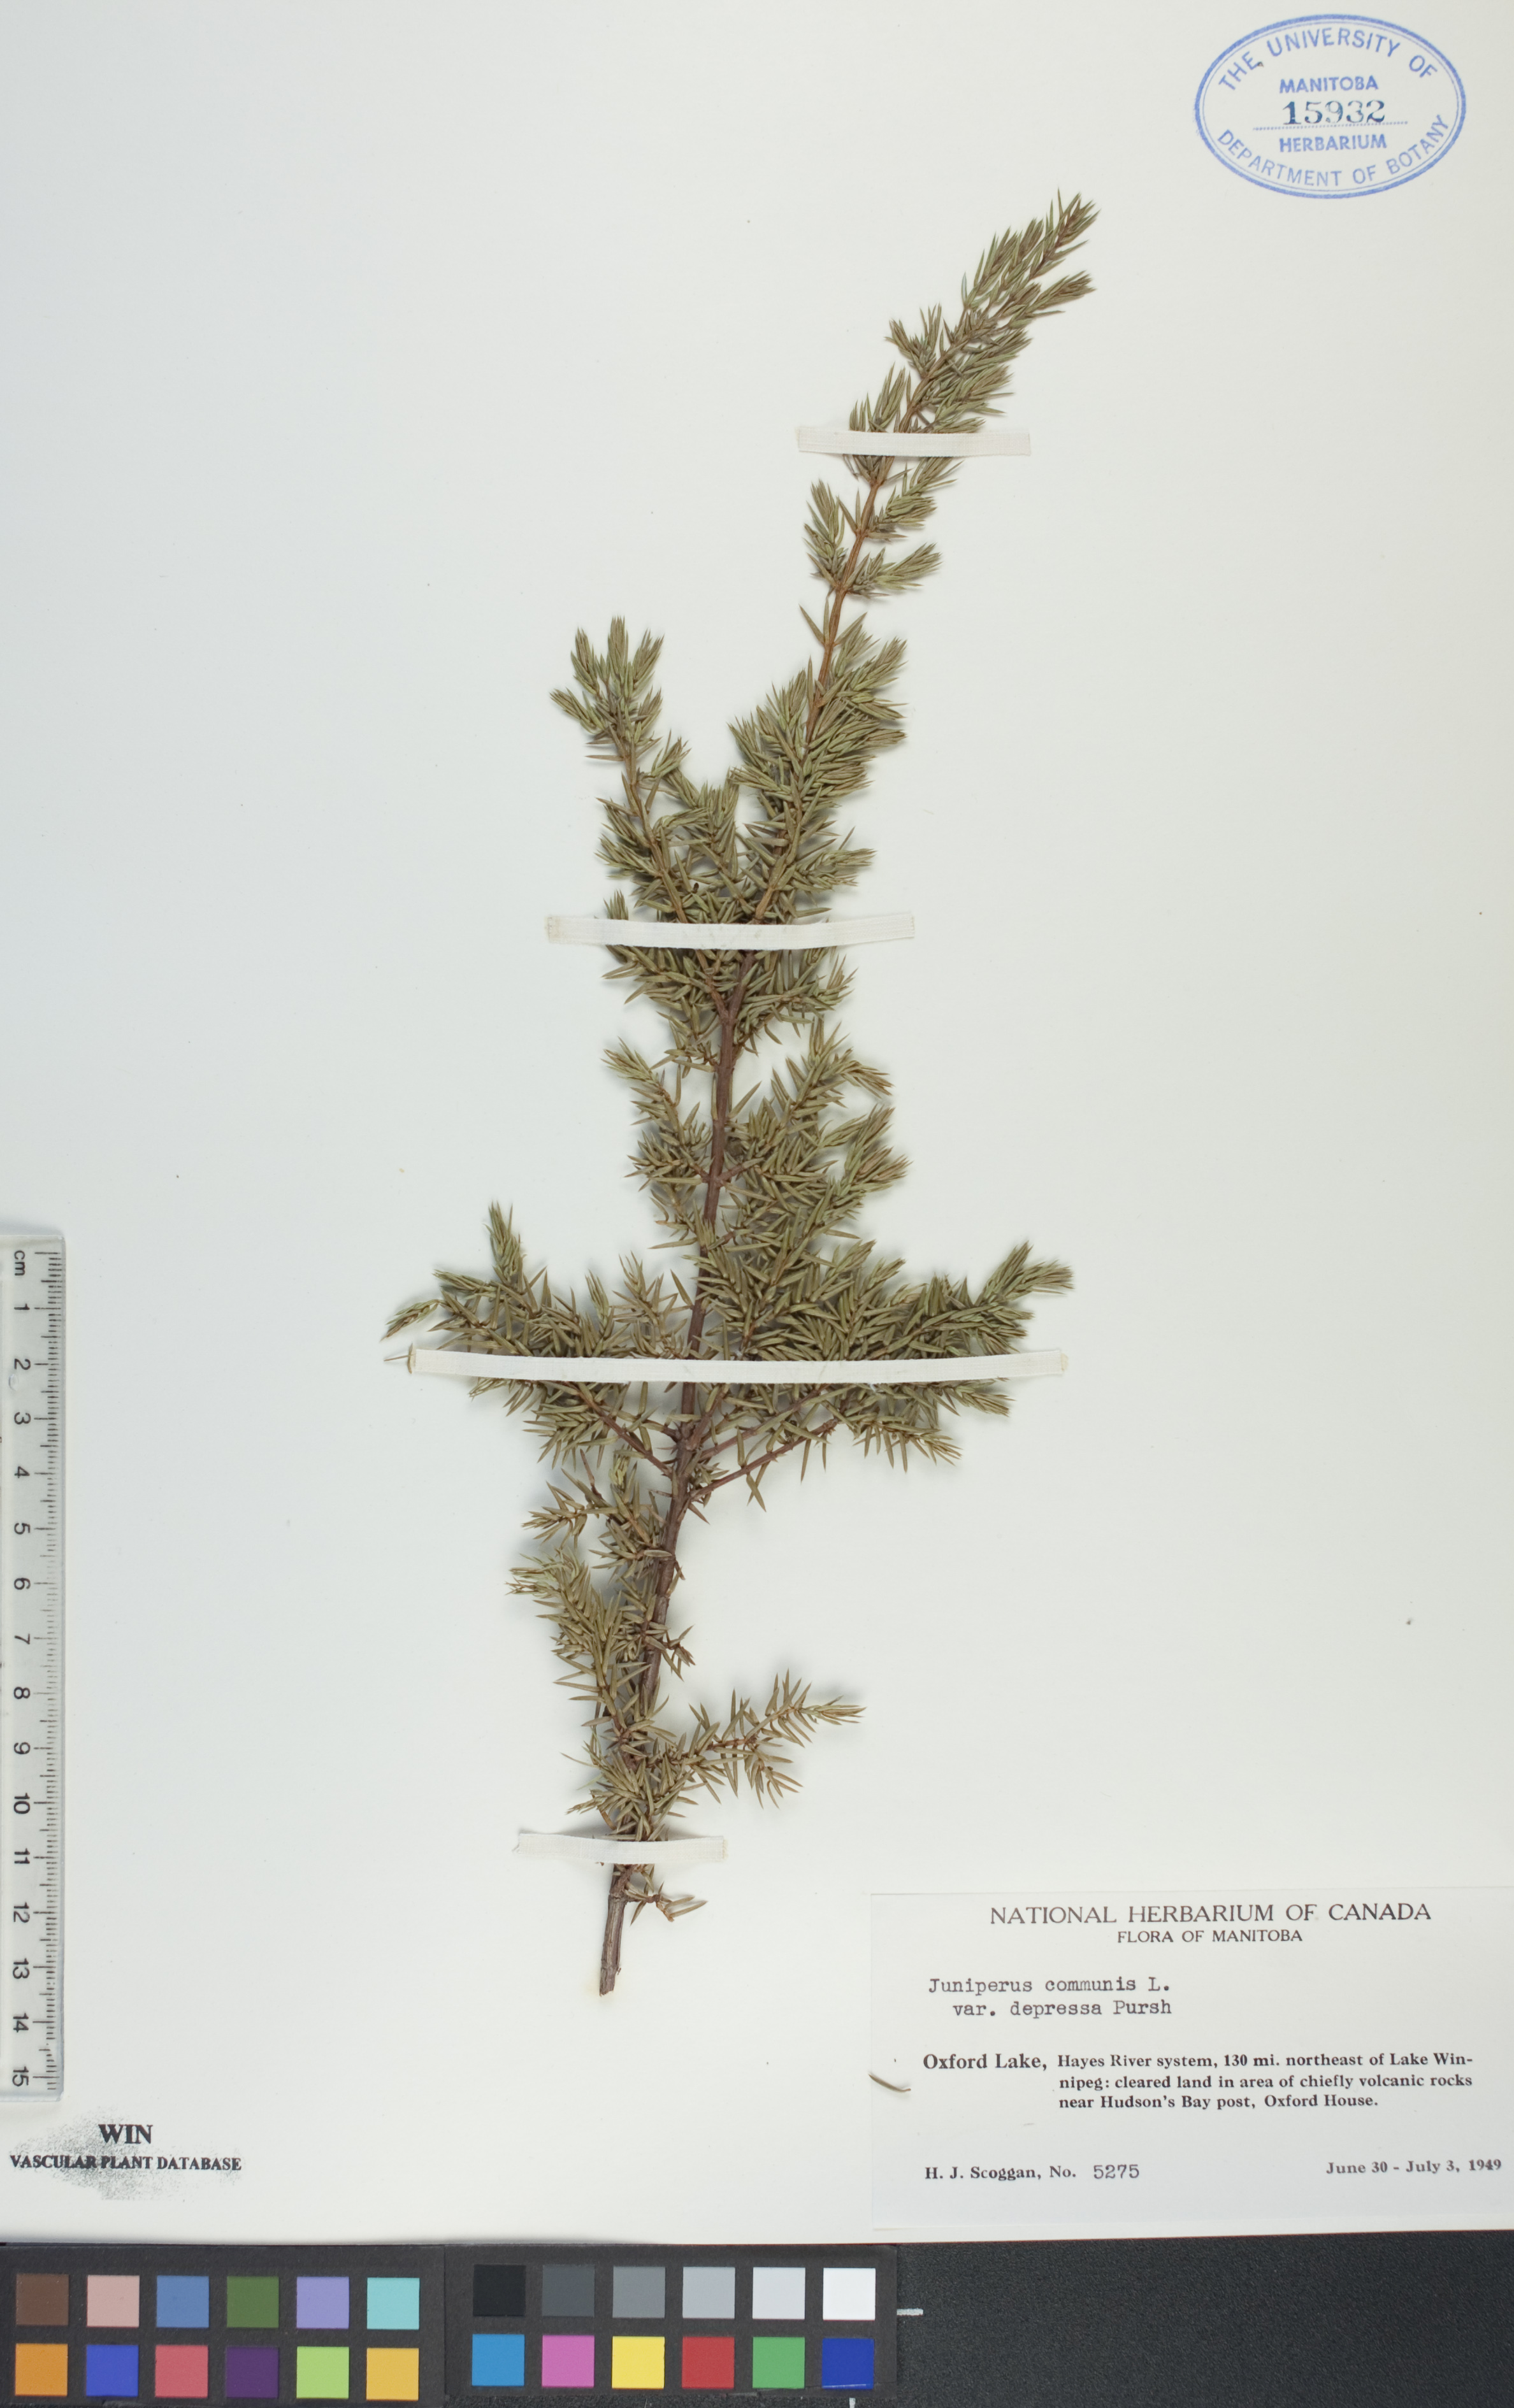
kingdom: Plantae
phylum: Tracheophyta
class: Pinopsida
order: Pinales
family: Cupressaceae
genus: Juniperus
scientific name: Juniperus communis
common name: Common juniper
